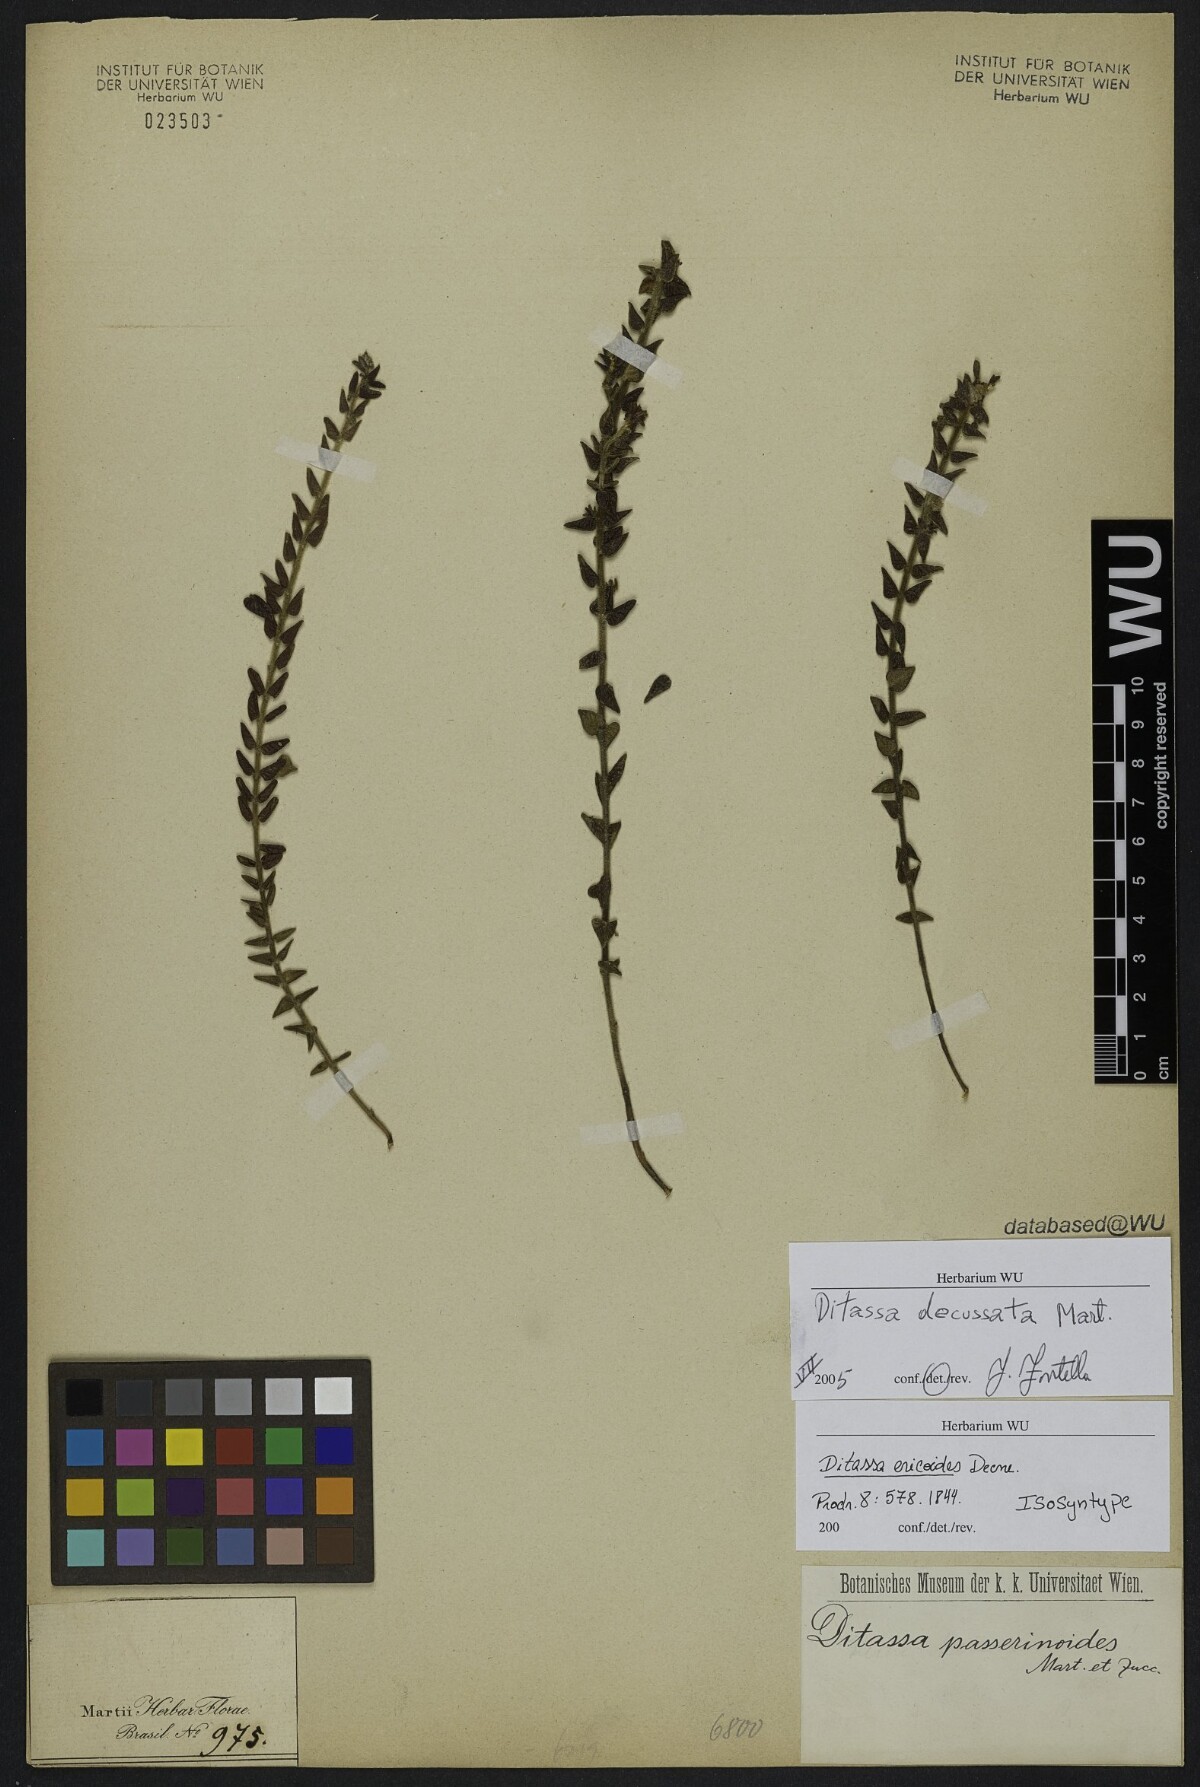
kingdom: Plantae
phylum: Tracheophyta
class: Magnoliopsida
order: Gentianales
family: Apocynaceae
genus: Minaria
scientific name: Minaria acerosa
